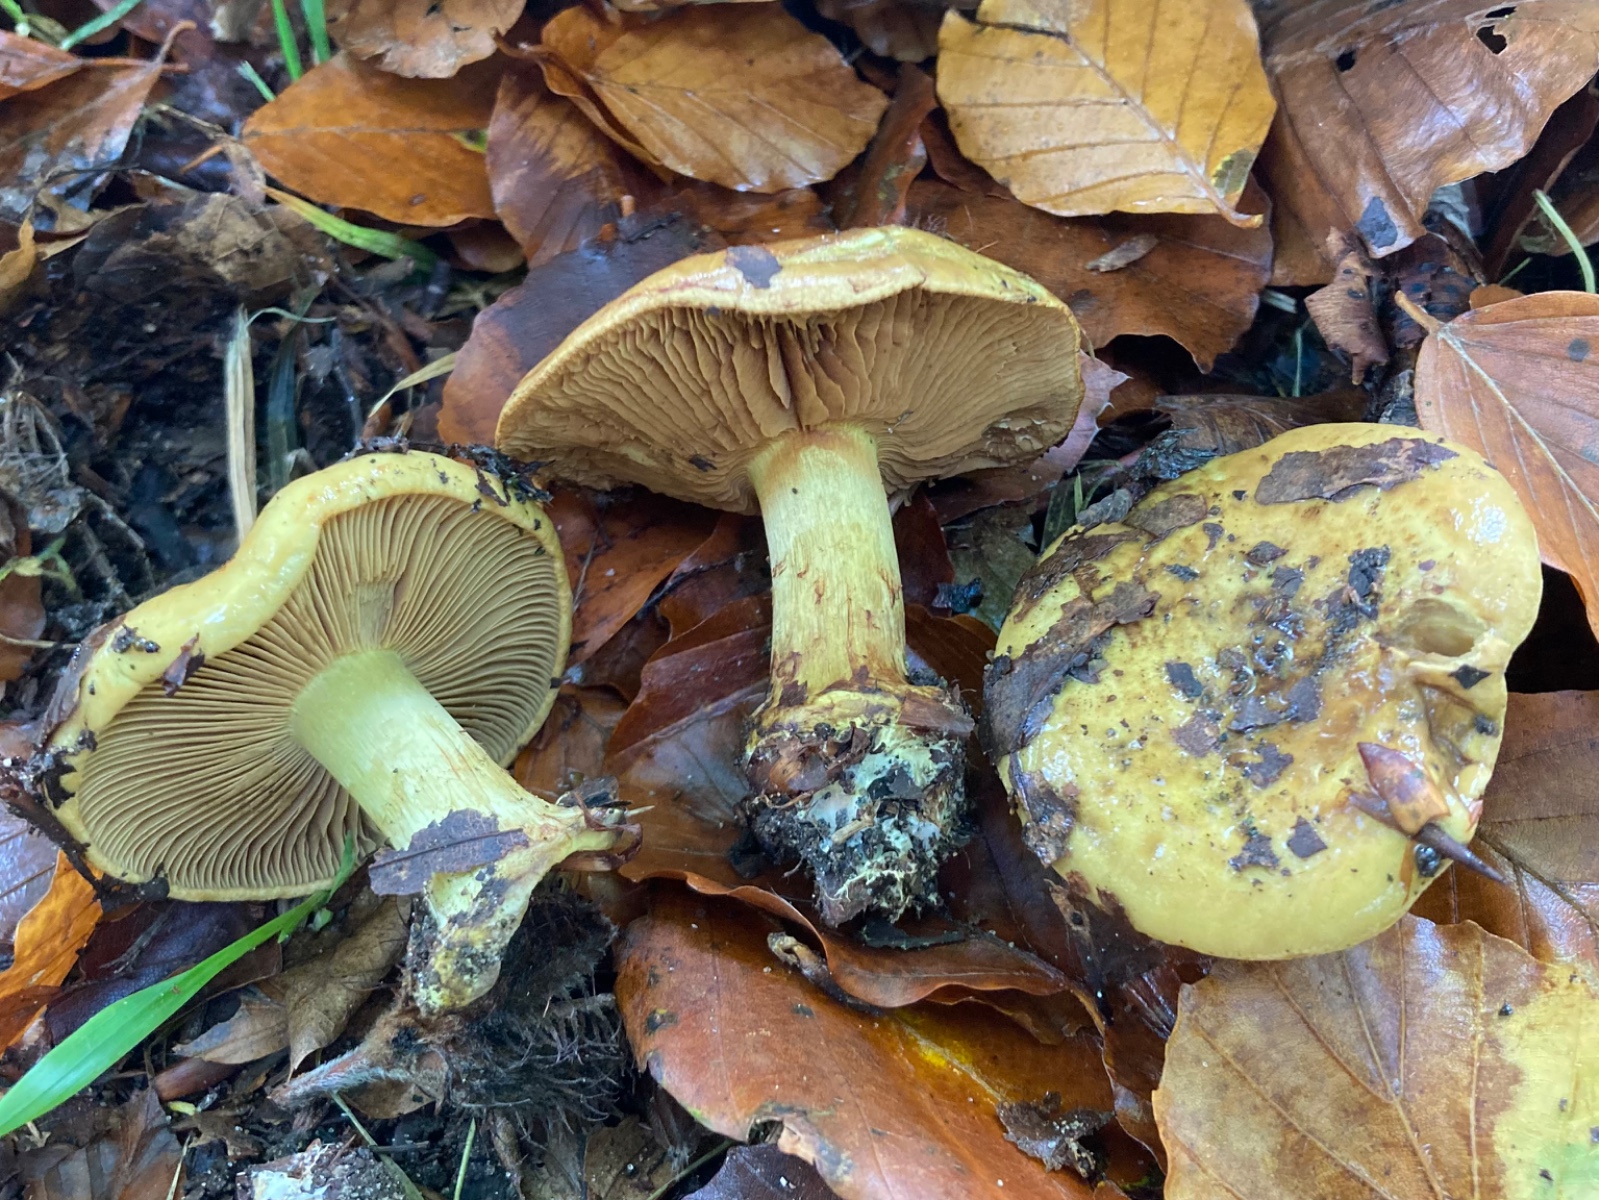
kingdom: Fungi
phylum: Basidiomycota
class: Agaricomycetes
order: Agaricales
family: Cortinariaceae
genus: Calonarius
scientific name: Calonarius citrinus
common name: citrongul slørhat
